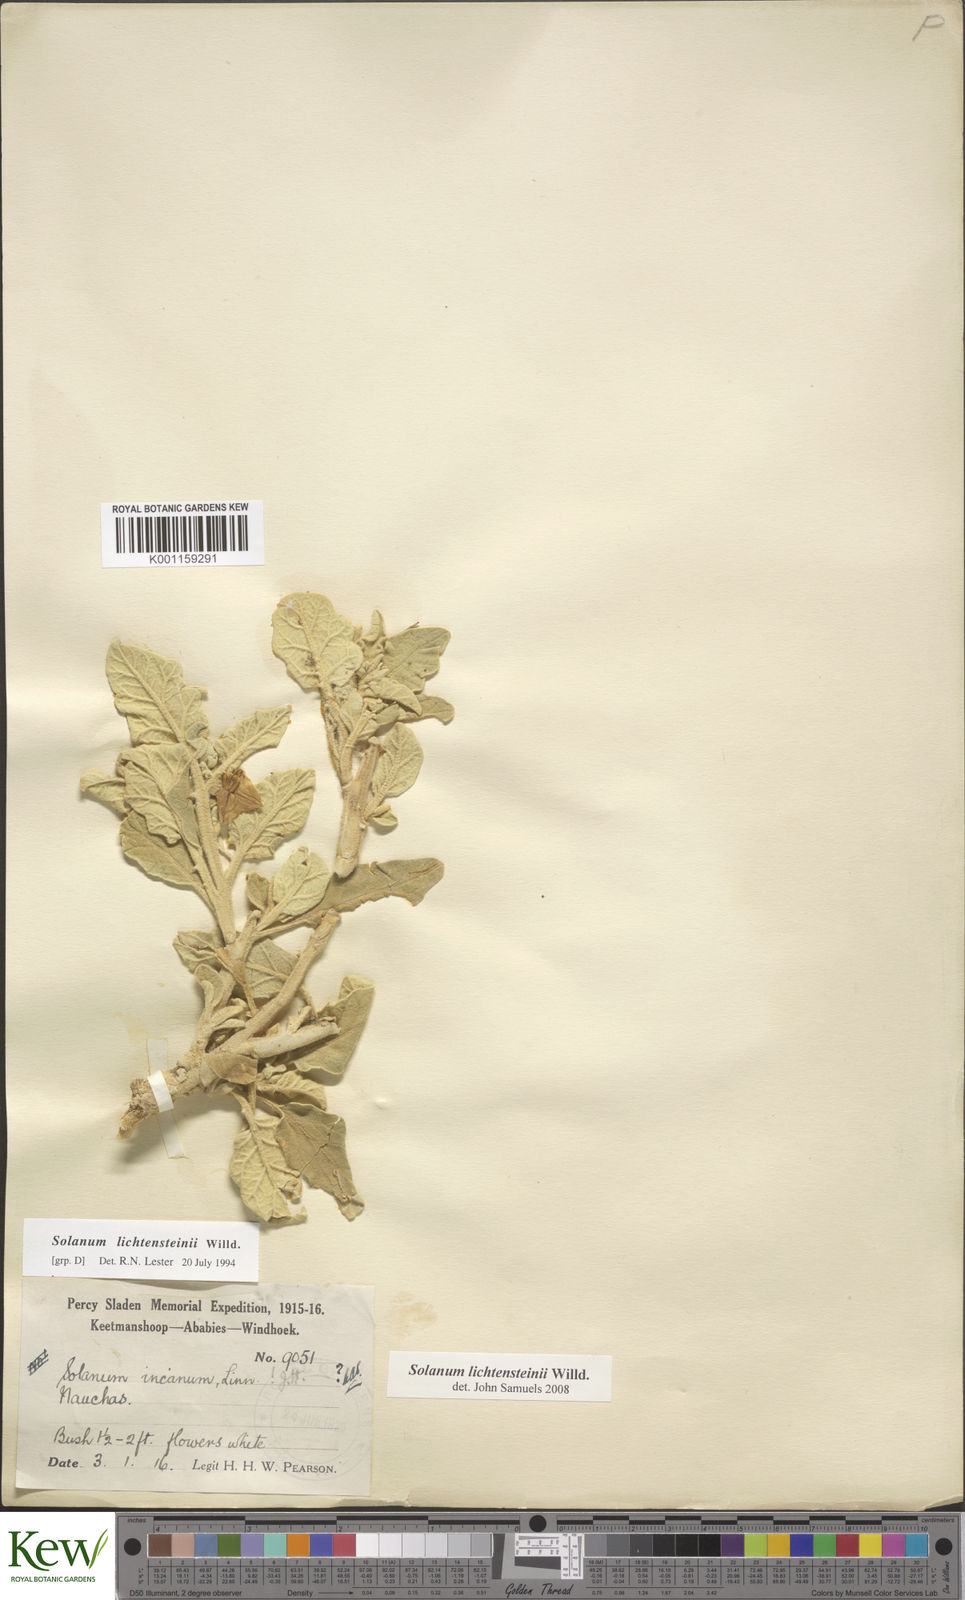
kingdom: Plantae
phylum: Tracheophyta
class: Magnoliopsida
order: Solanales
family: Solanaceae
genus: Solanum
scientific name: Solanum lichtensteinii
